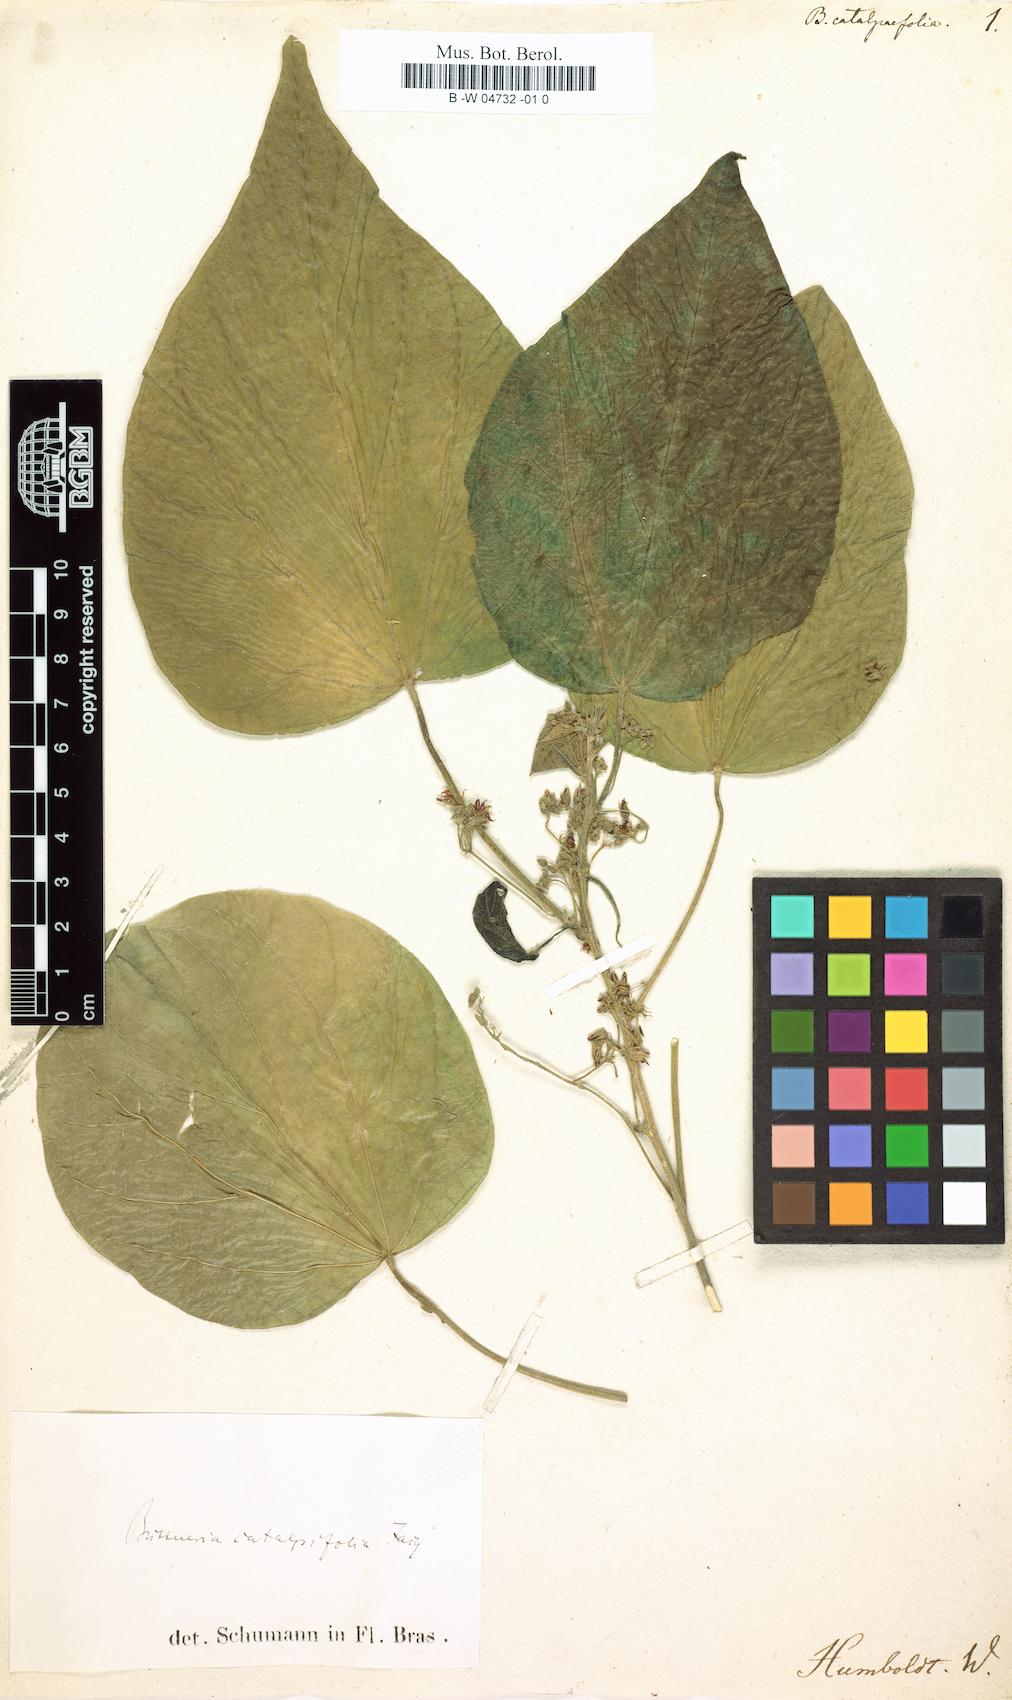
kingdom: Plantae
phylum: Tracheophyta
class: Magnoliopsida
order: Malvales
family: Malvaceae
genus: Byttneria
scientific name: Byttneria catalpifolia
